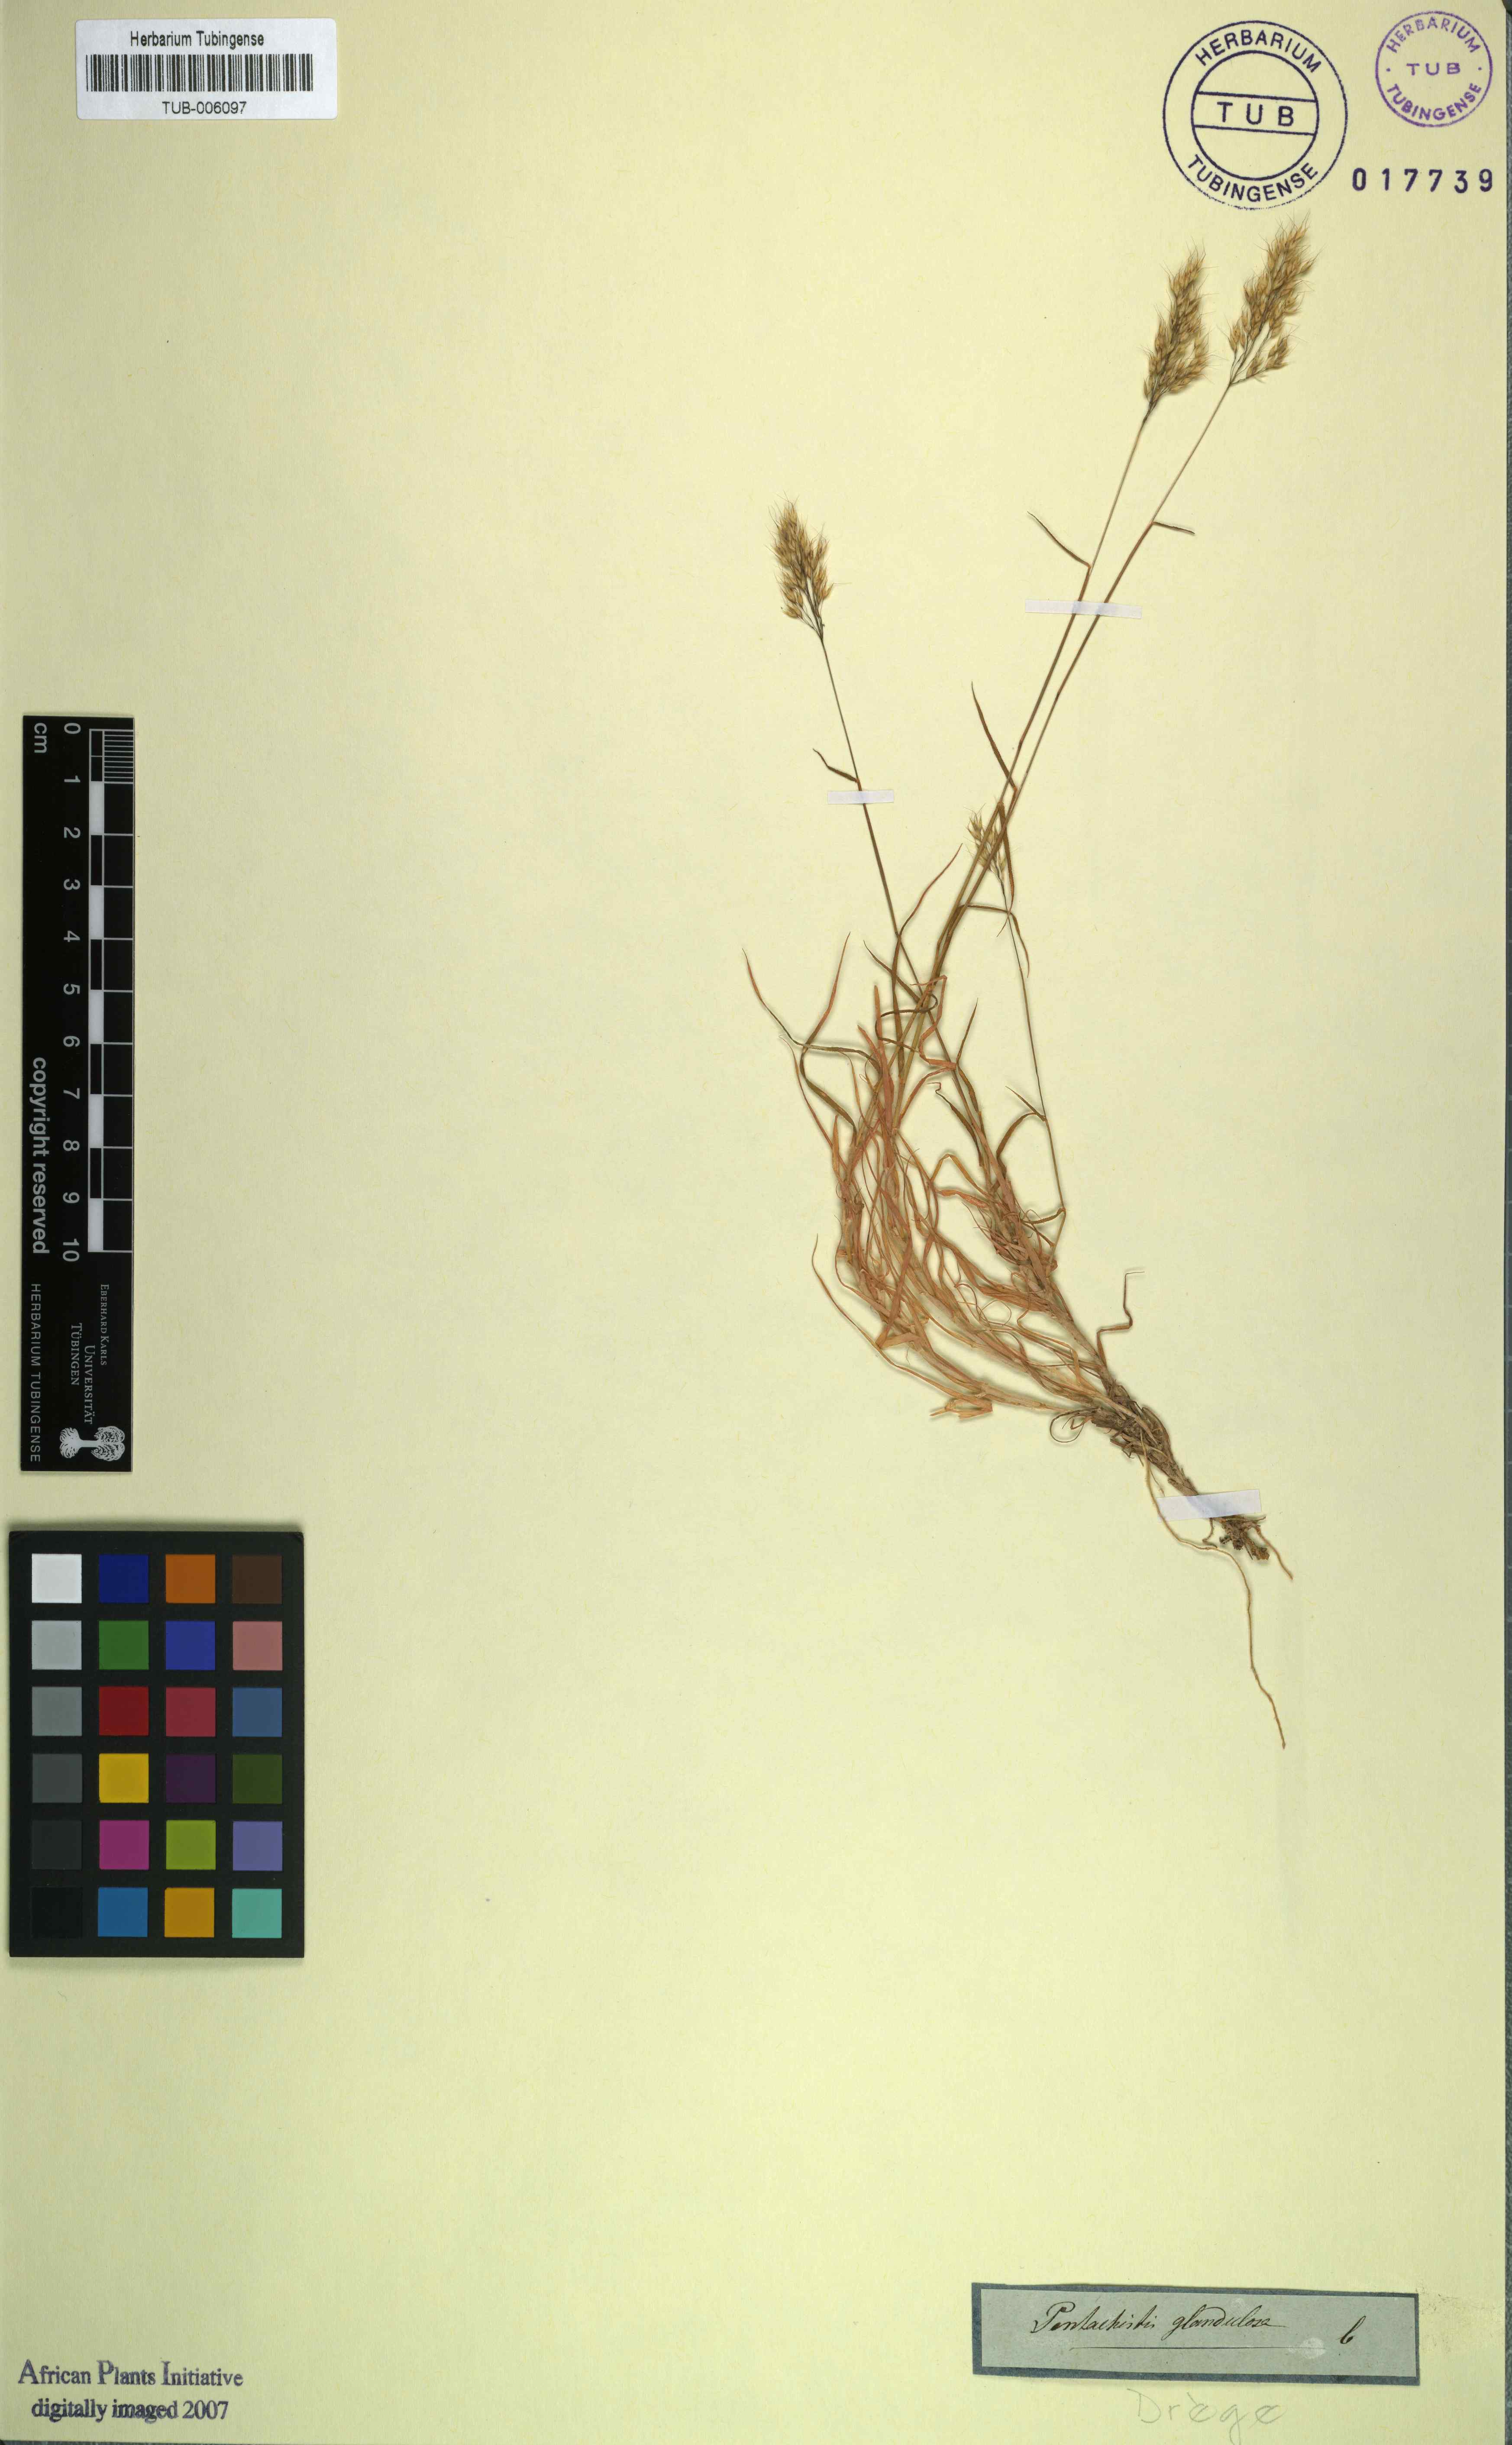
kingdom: Plantae
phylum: Tracheophyta
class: Liliopsida
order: Poales
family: Poaceae
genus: Pentameris
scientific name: Pentameris glandulosa
